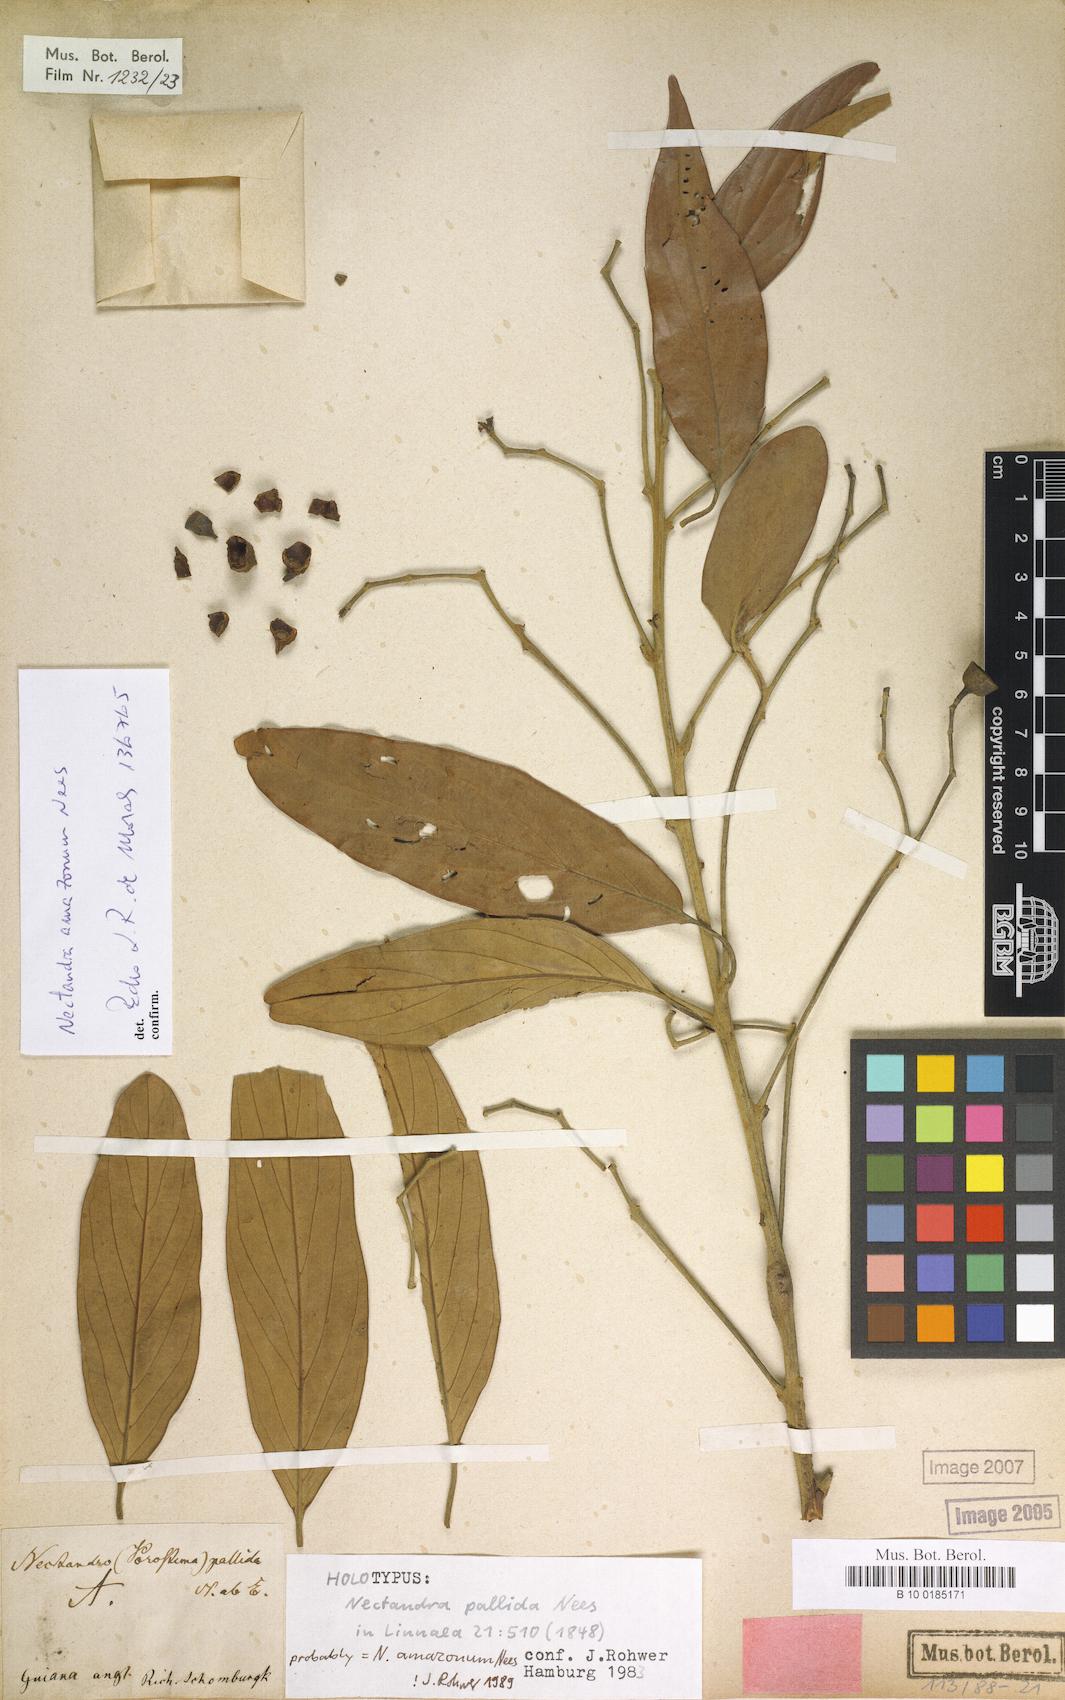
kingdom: Plantae
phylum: Tracheophyta
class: Magnoliopsida
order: Laurales
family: Lauraceae
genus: Nectandra
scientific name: Nectandra amazonum
